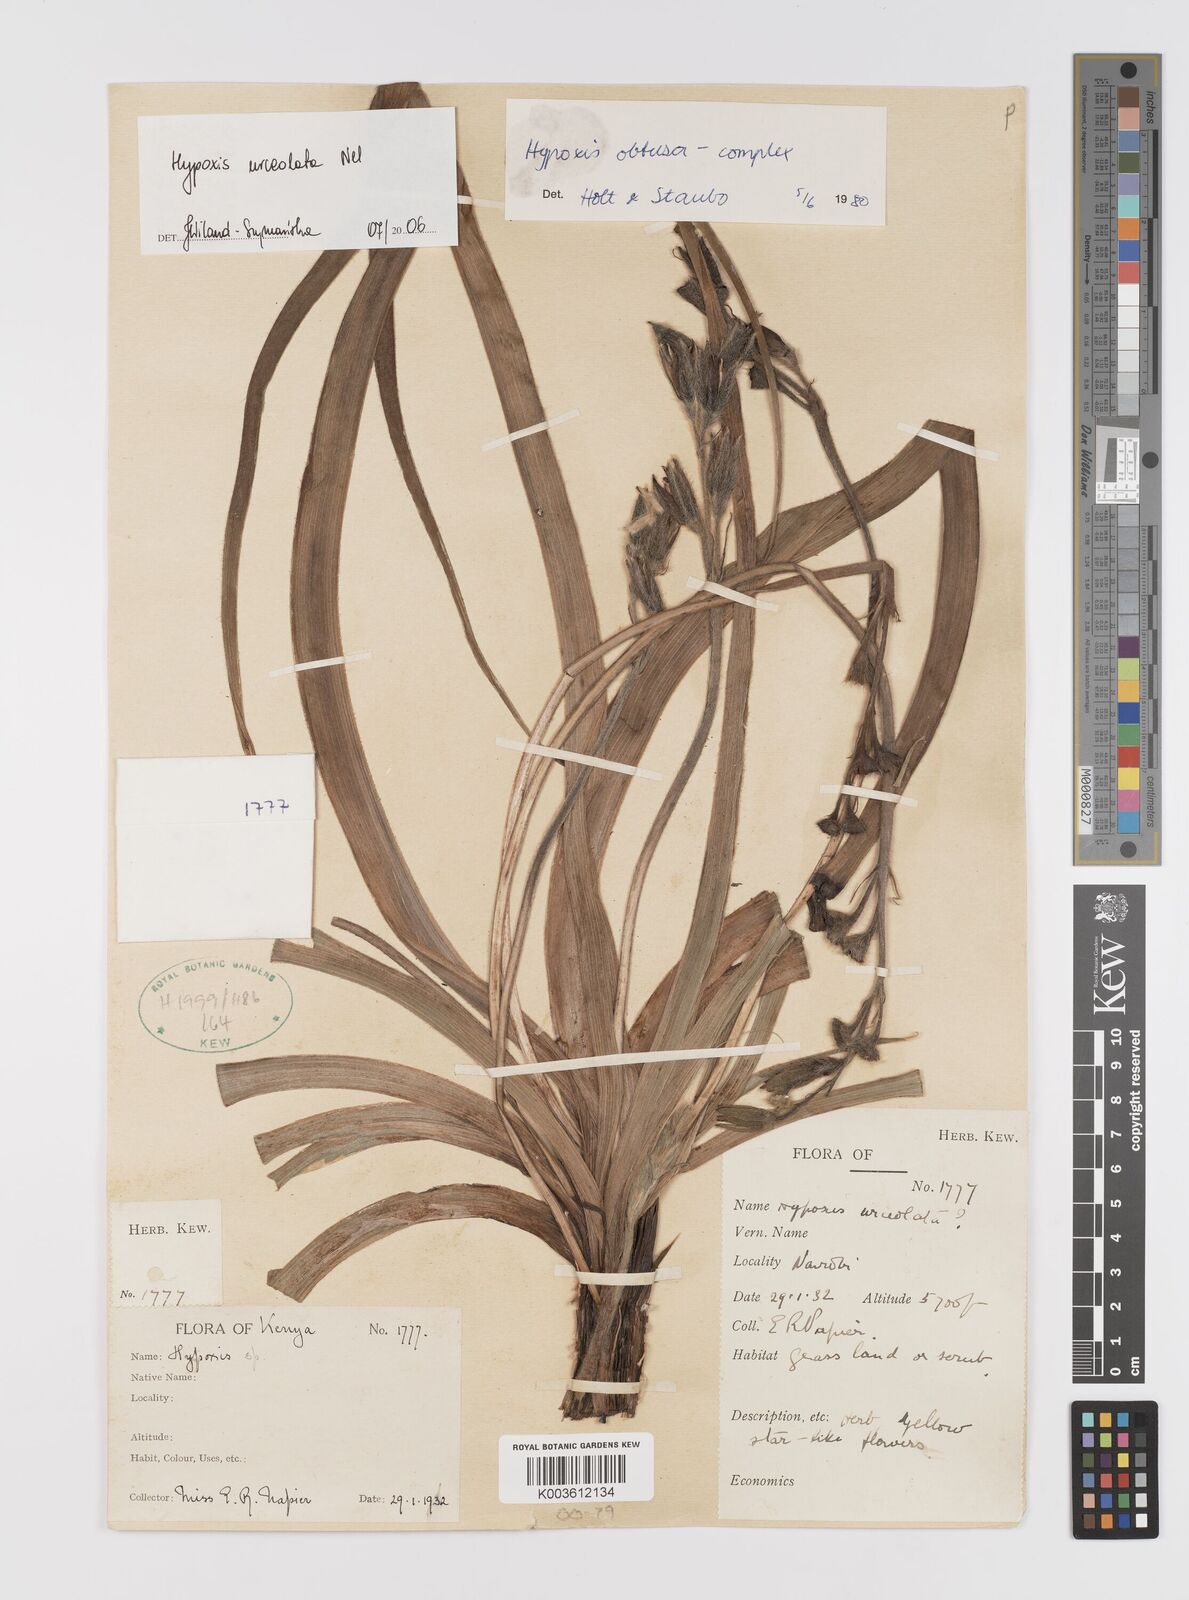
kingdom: Plantae
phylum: Tracheophyta
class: Liliopsida
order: Asparagales
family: Hypoxidaceae
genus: Hypoxis
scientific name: Hypoxis urceolata
